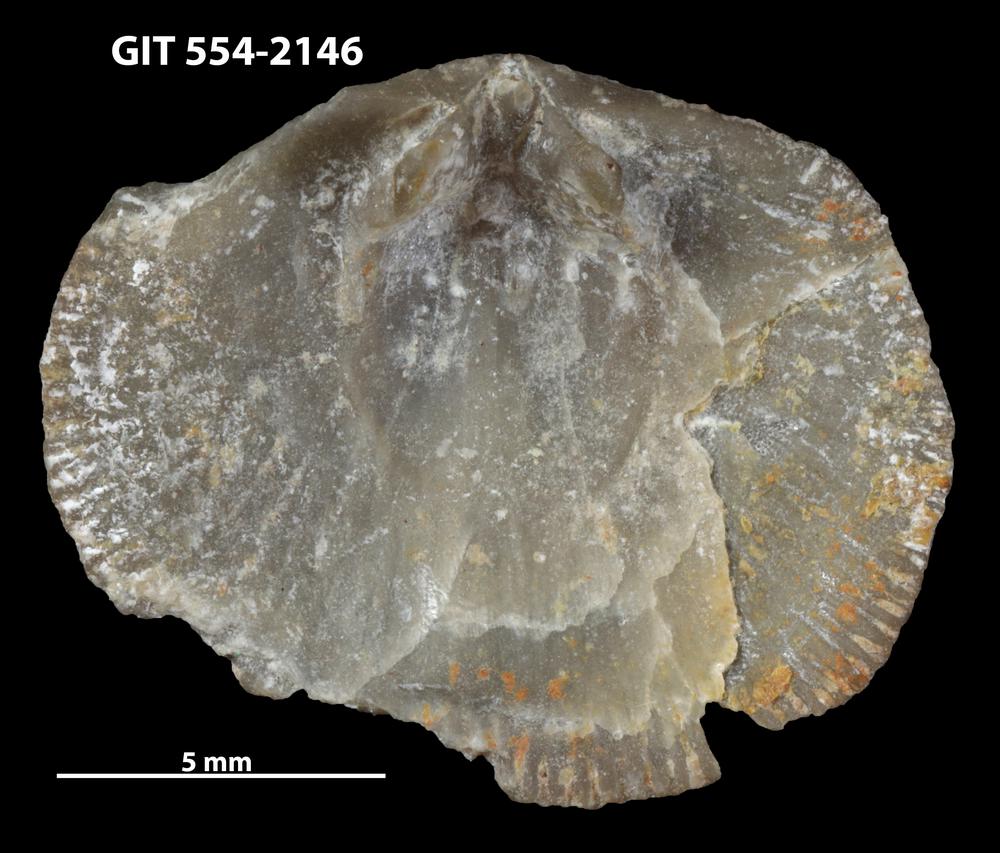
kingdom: Animalia
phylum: Brachiopoda
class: Rhynchonellata
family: Dalmanellidae
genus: Levenea
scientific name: Levenea Orthis canaliculata
